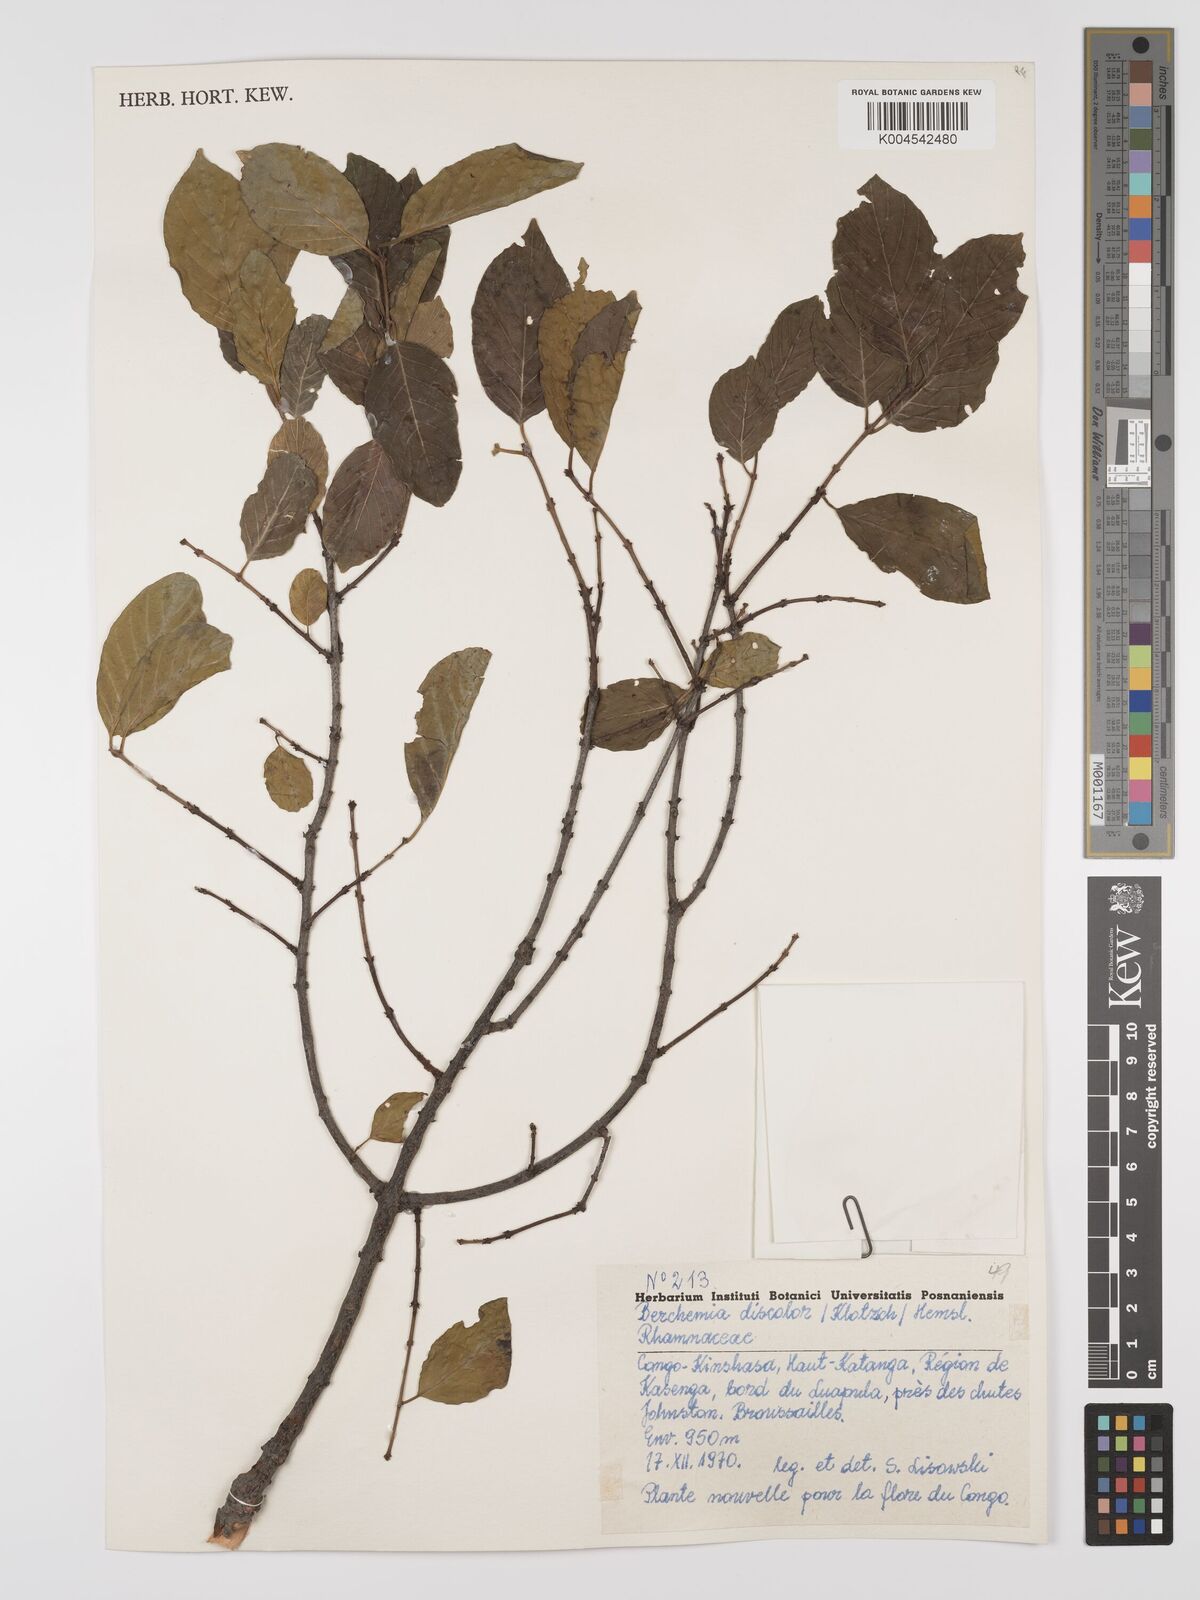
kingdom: Plantae
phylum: Tracheophyta
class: Magnoliopsida
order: Rosales
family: Rhamnaceae
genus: Phyllogeiton
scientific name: Phyllogeiton discolor
